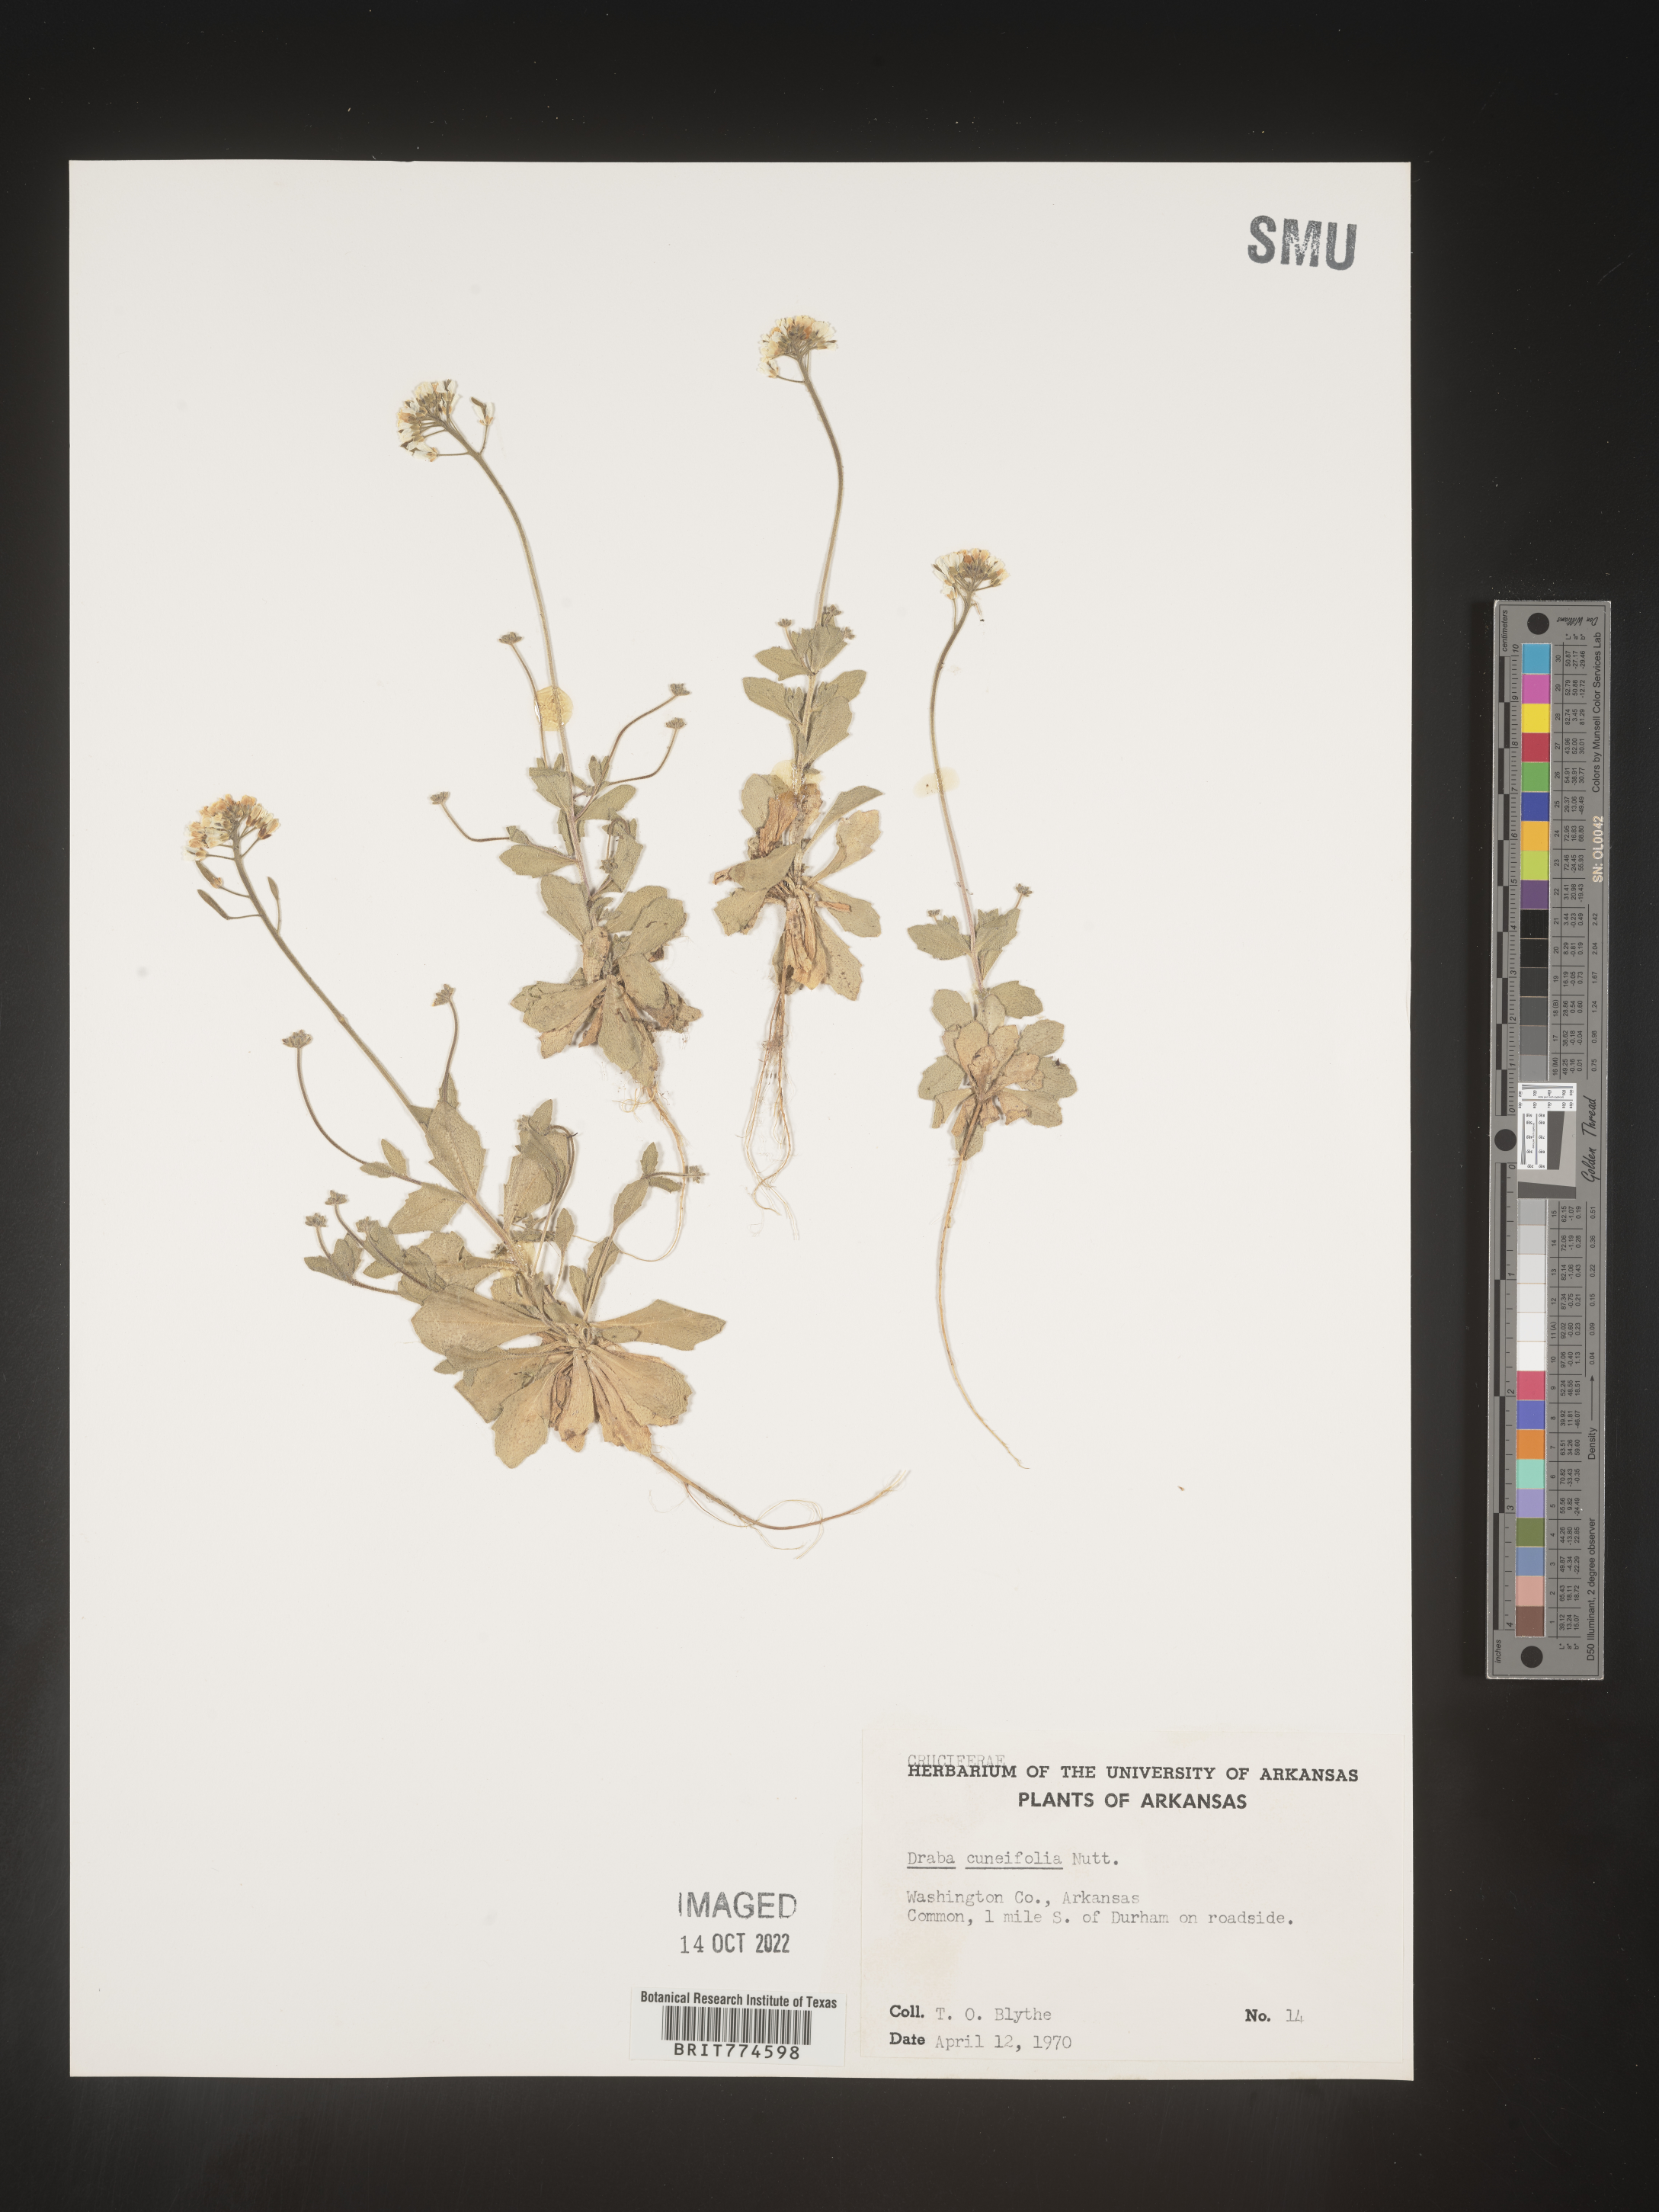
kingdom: Plantae
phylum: Tracheophyta
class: Magnoliopsida
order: Brassicales
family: Brassicaceae
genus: Tomostima
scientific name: Tomostima cuneifolia
